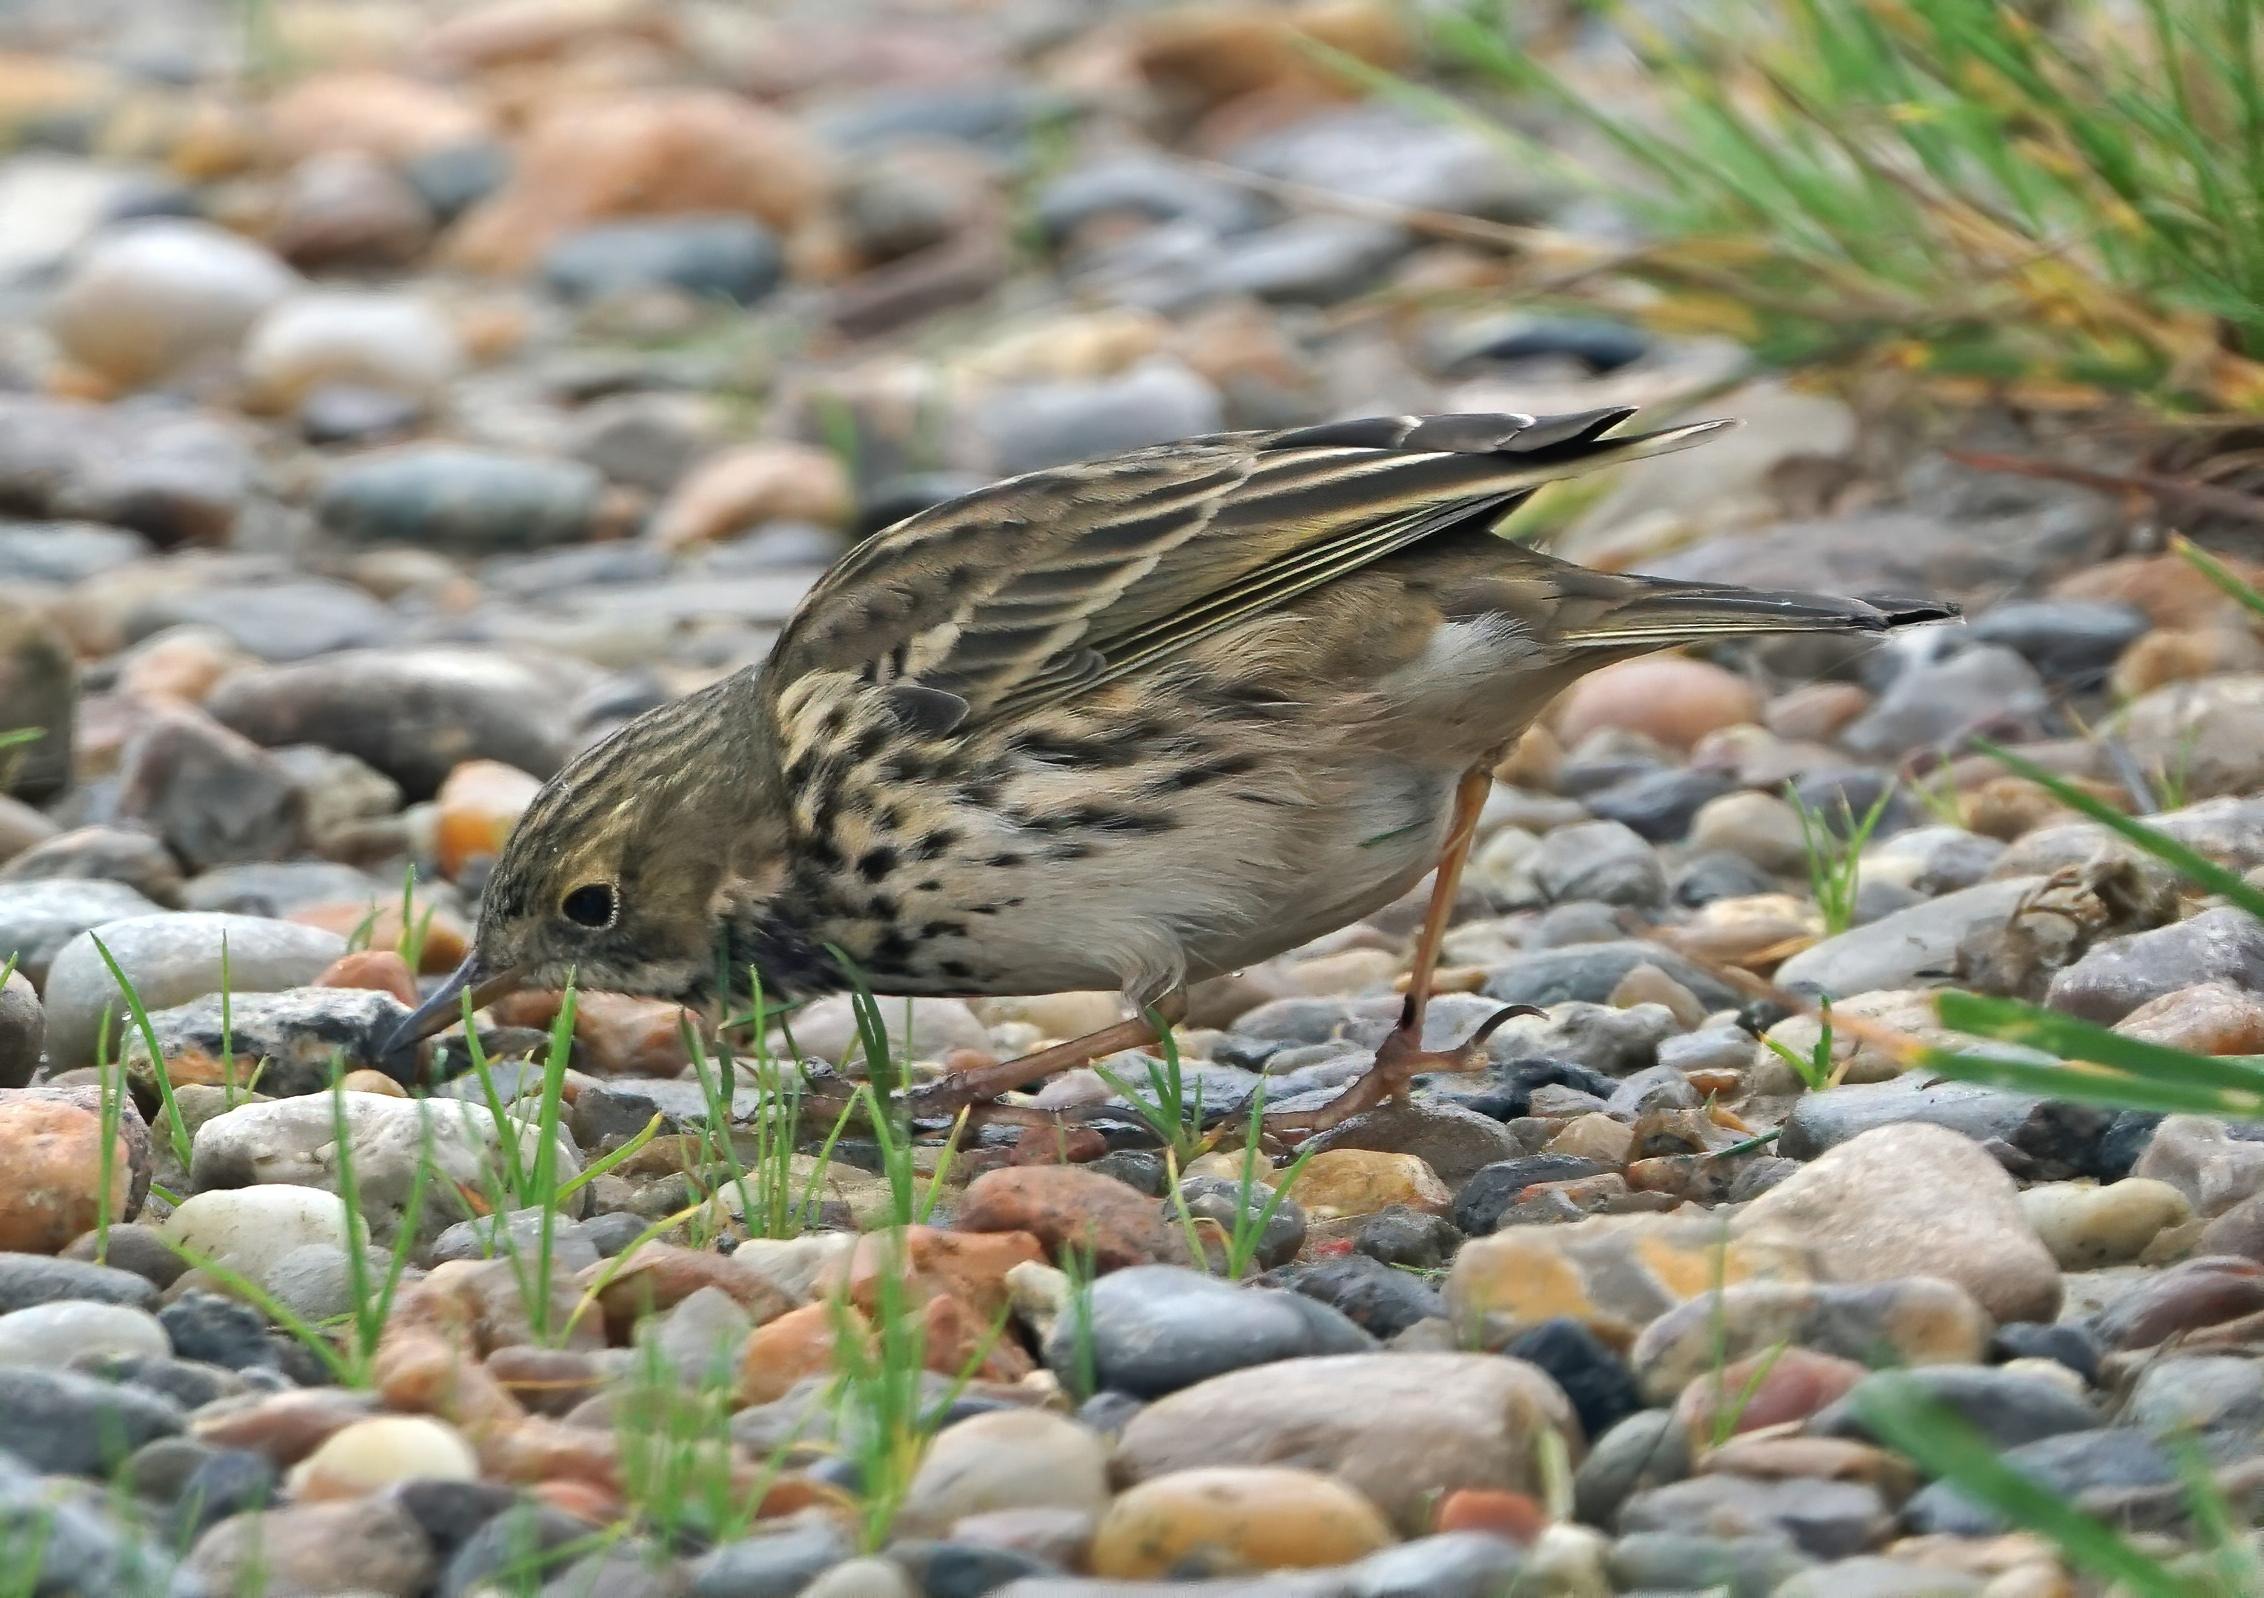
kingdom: Animalia
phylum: Chordata
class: Aves
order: Passeriformes
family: Motacillidae
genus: Anthus
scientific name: Anthus pratensis
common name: Engpiber
